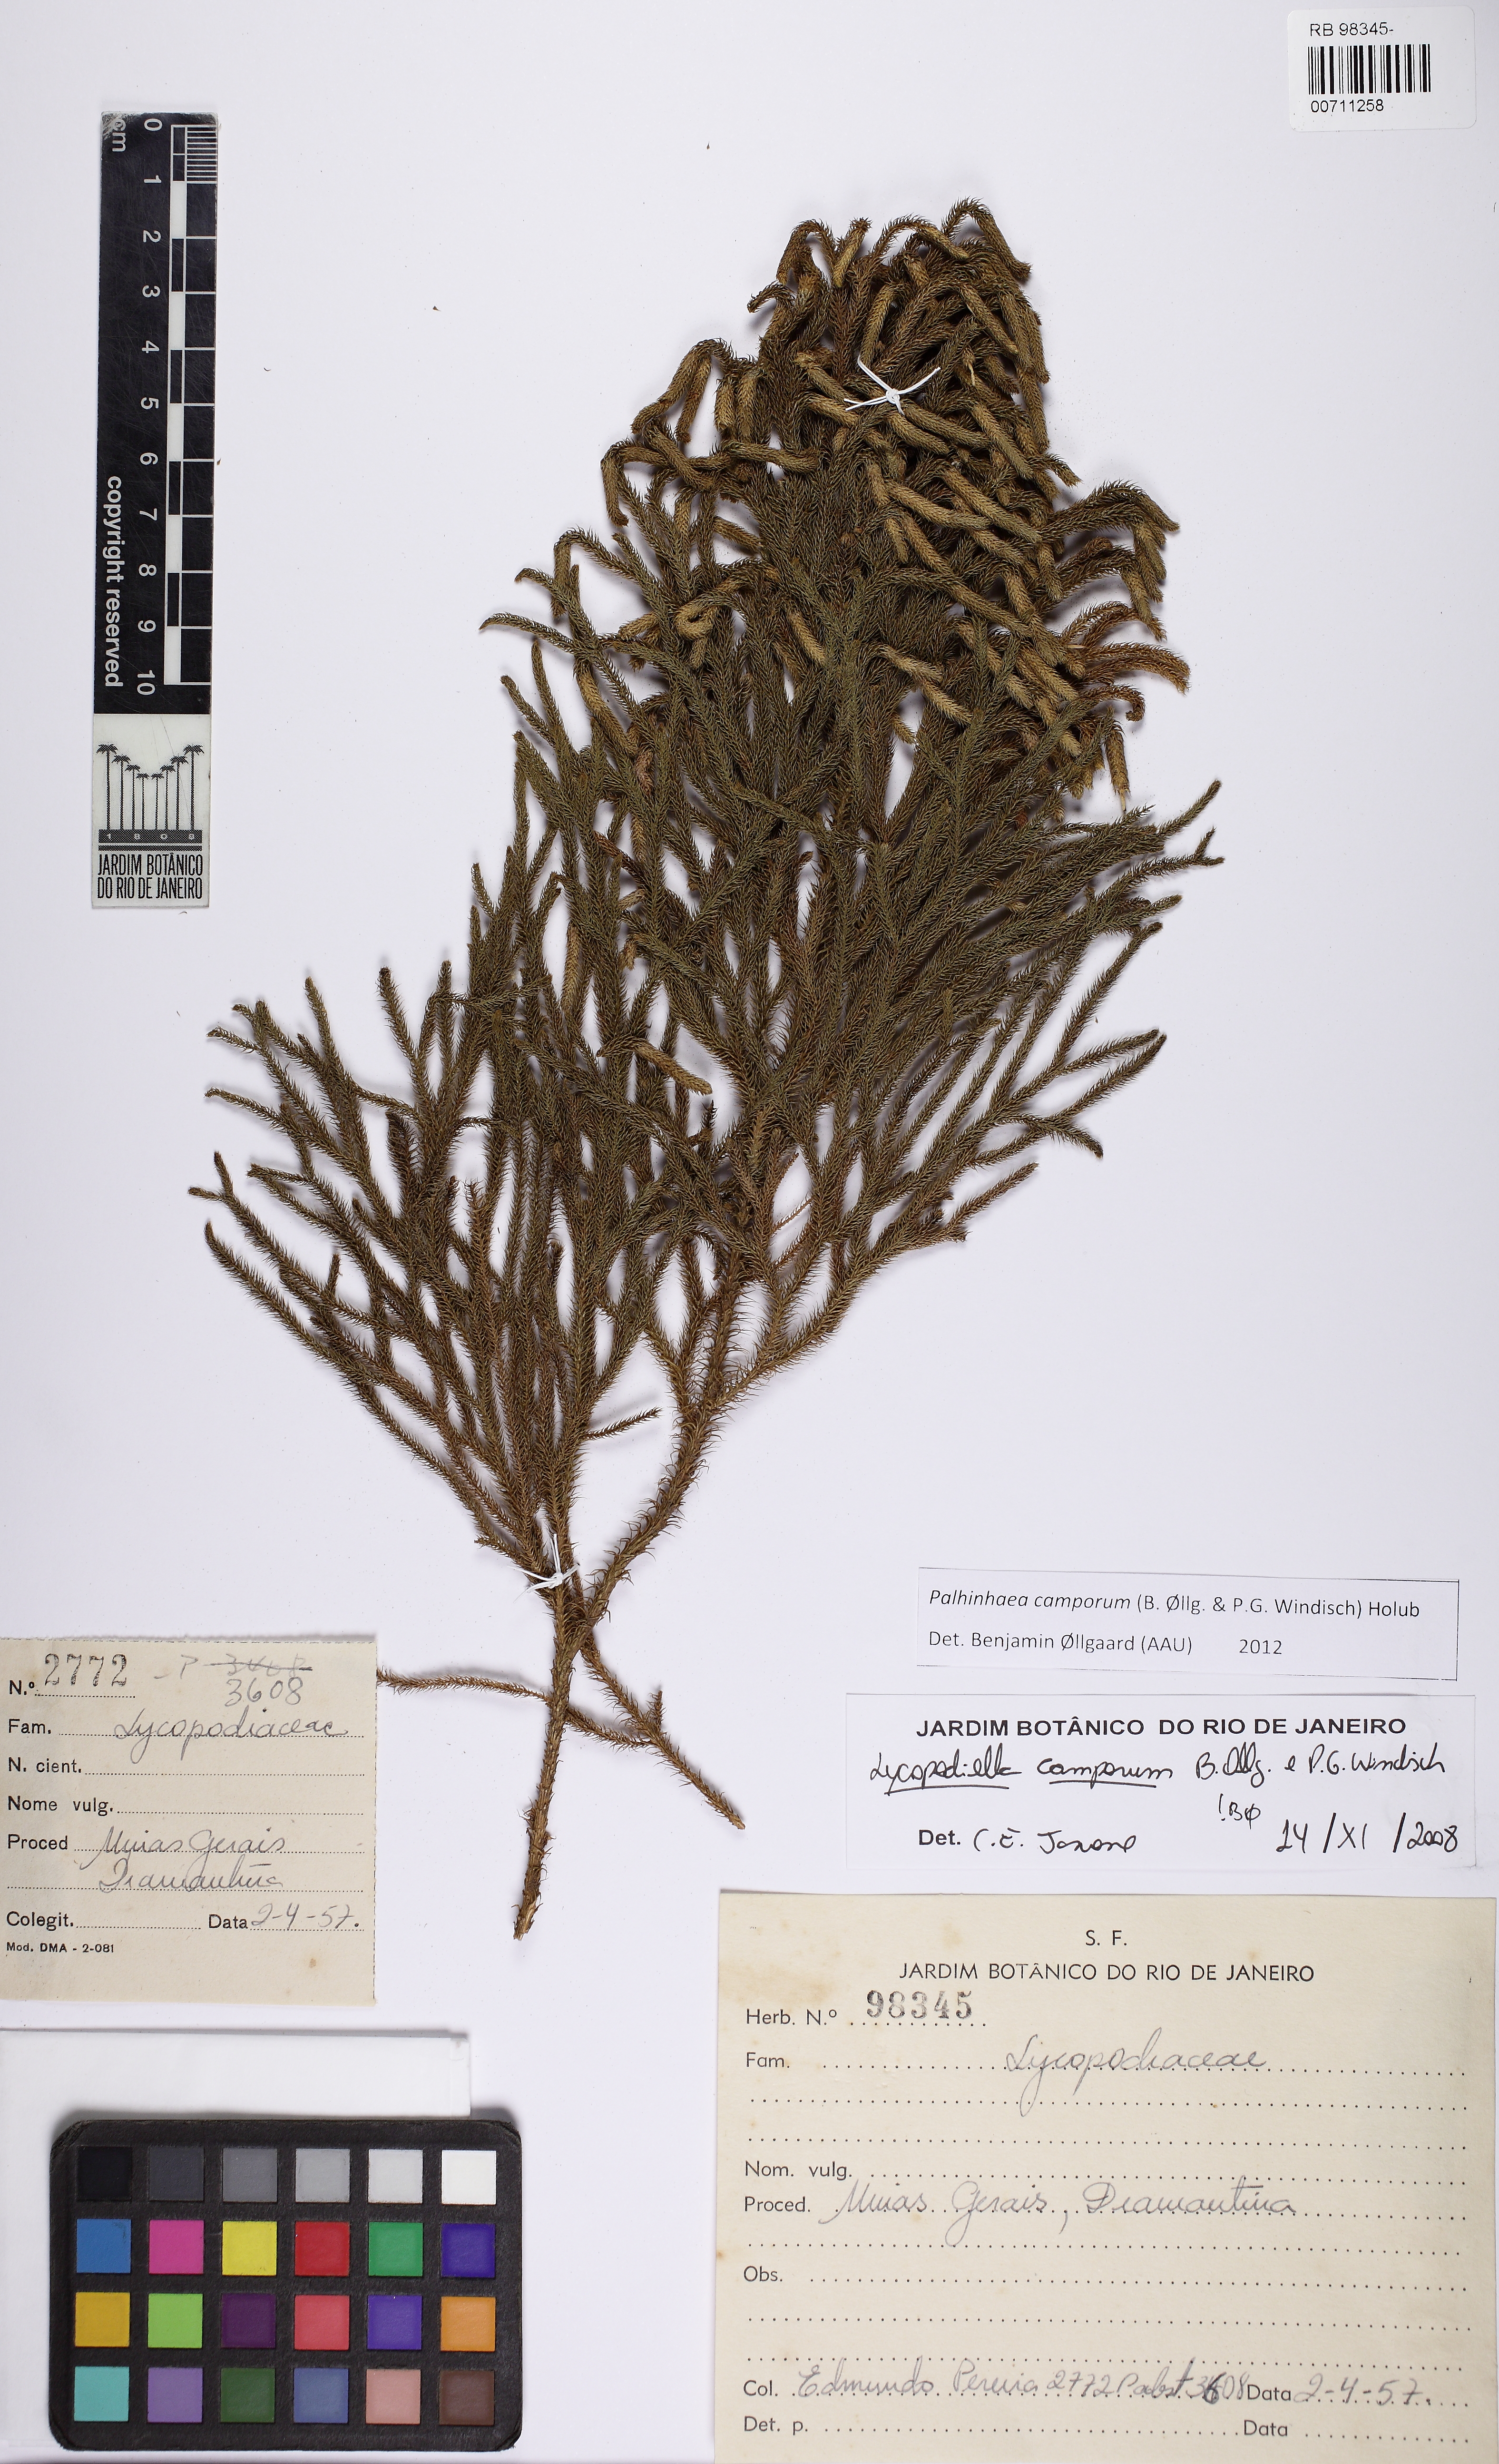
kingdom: Plantae
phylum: Tracheophyta
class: Lycopodiopsida
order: Lycopodiales
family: Lycopodiaceae
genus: Palhinhaea
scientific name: Palhinhaea camporum
